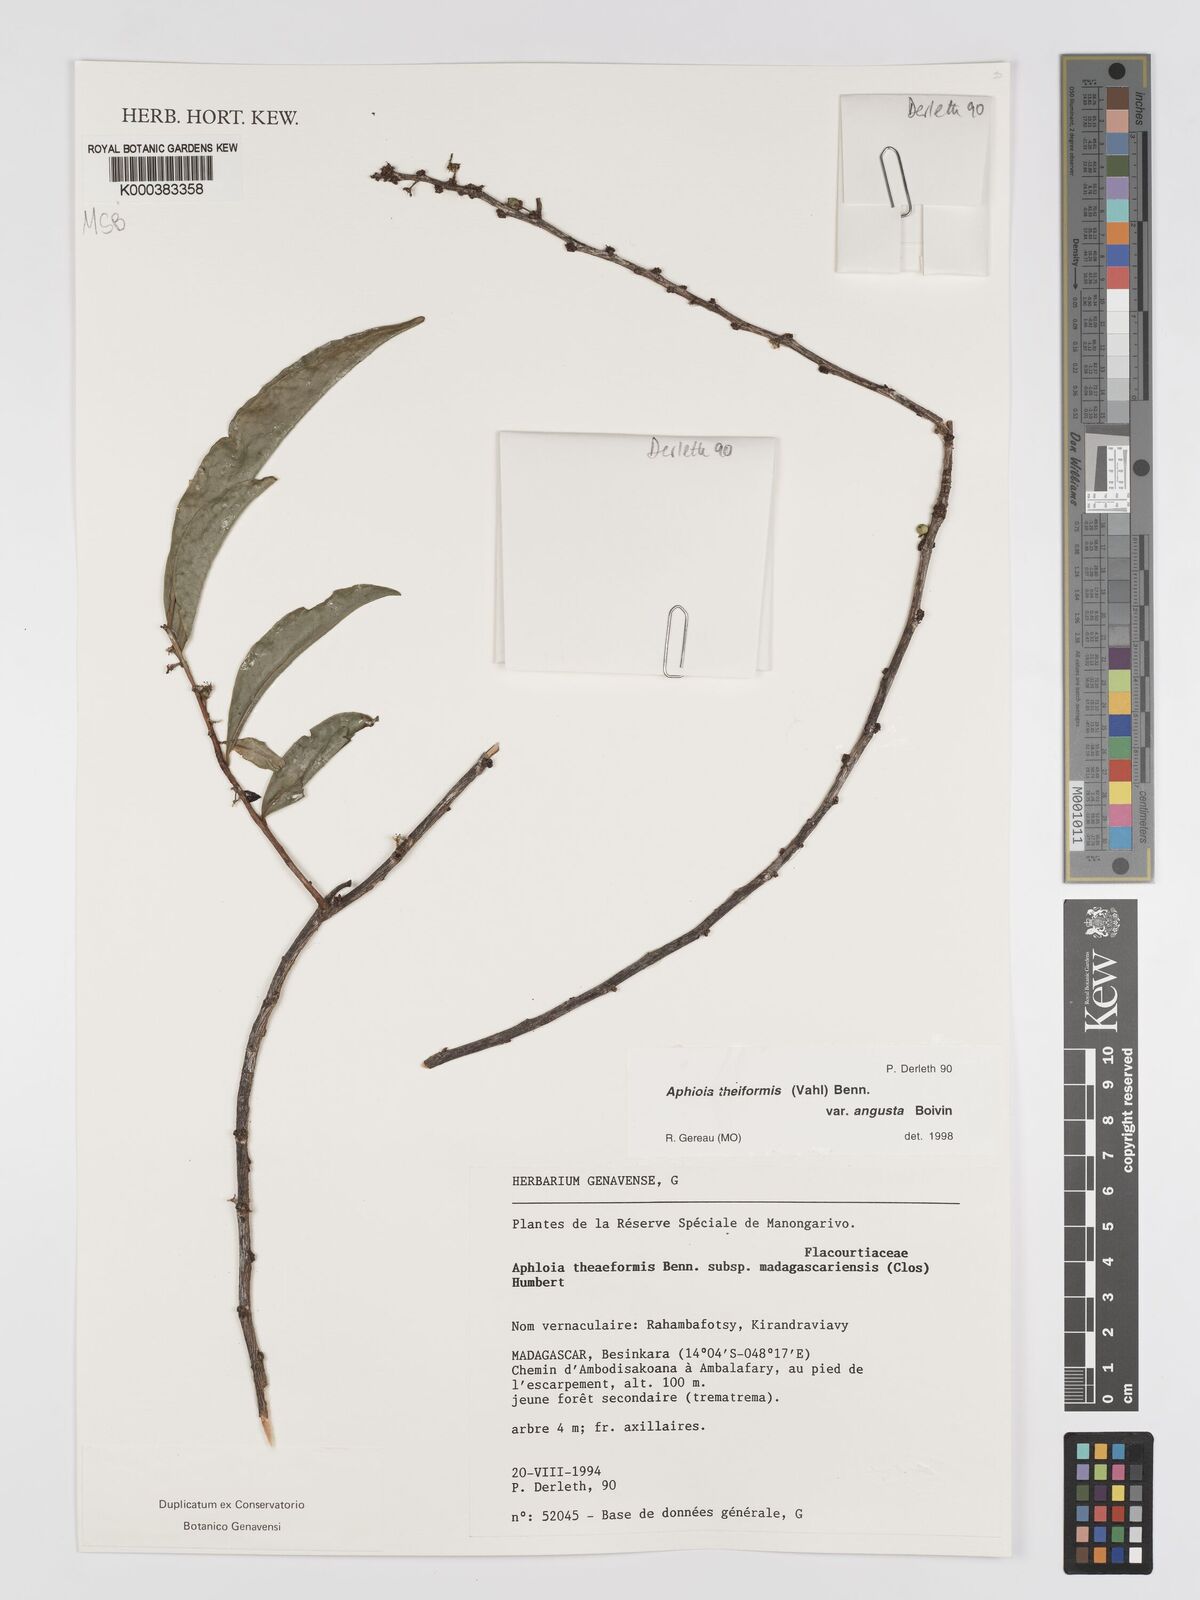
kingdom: Plantae
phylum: Tracheophyta
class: Magnoliopsida
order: Crossosomatales
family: Aphloiaceae
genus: Aphloia
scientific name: Aphloia theiformis
